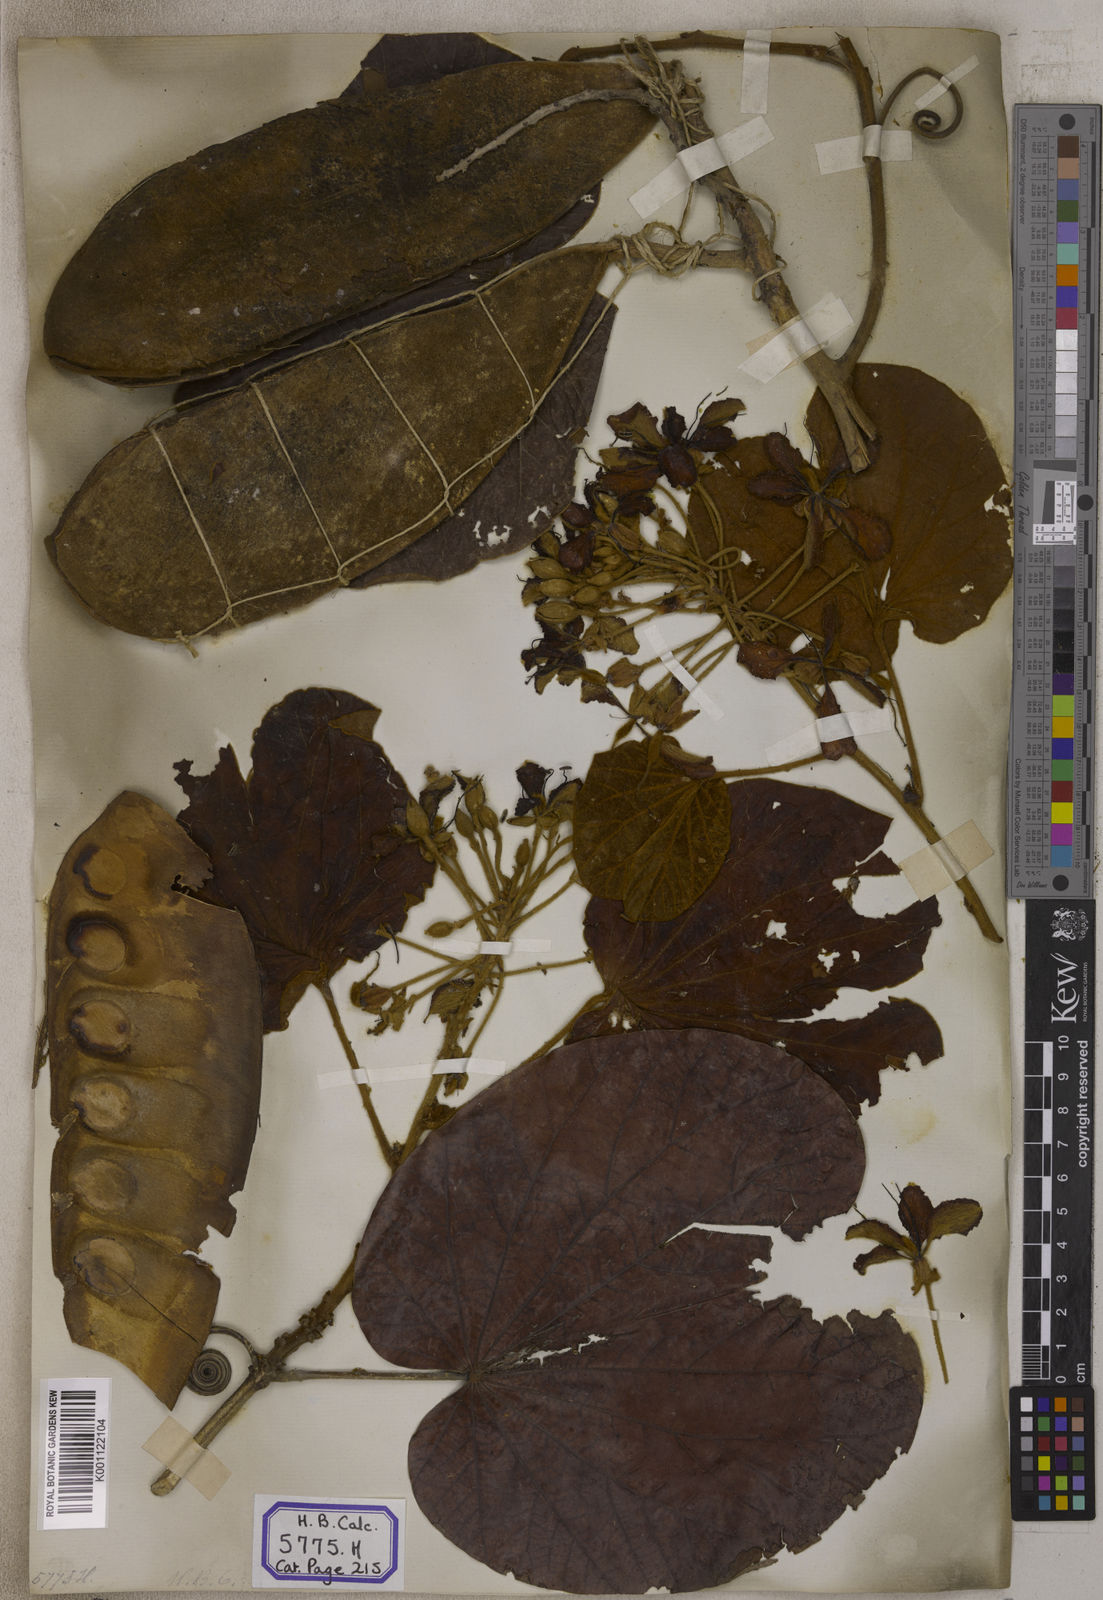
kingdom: Plantae
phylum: Tracheophyta
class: Magnoliopsida
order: Fabales
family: Fabaceae
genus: Bauhinia
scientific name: Bauhinia
